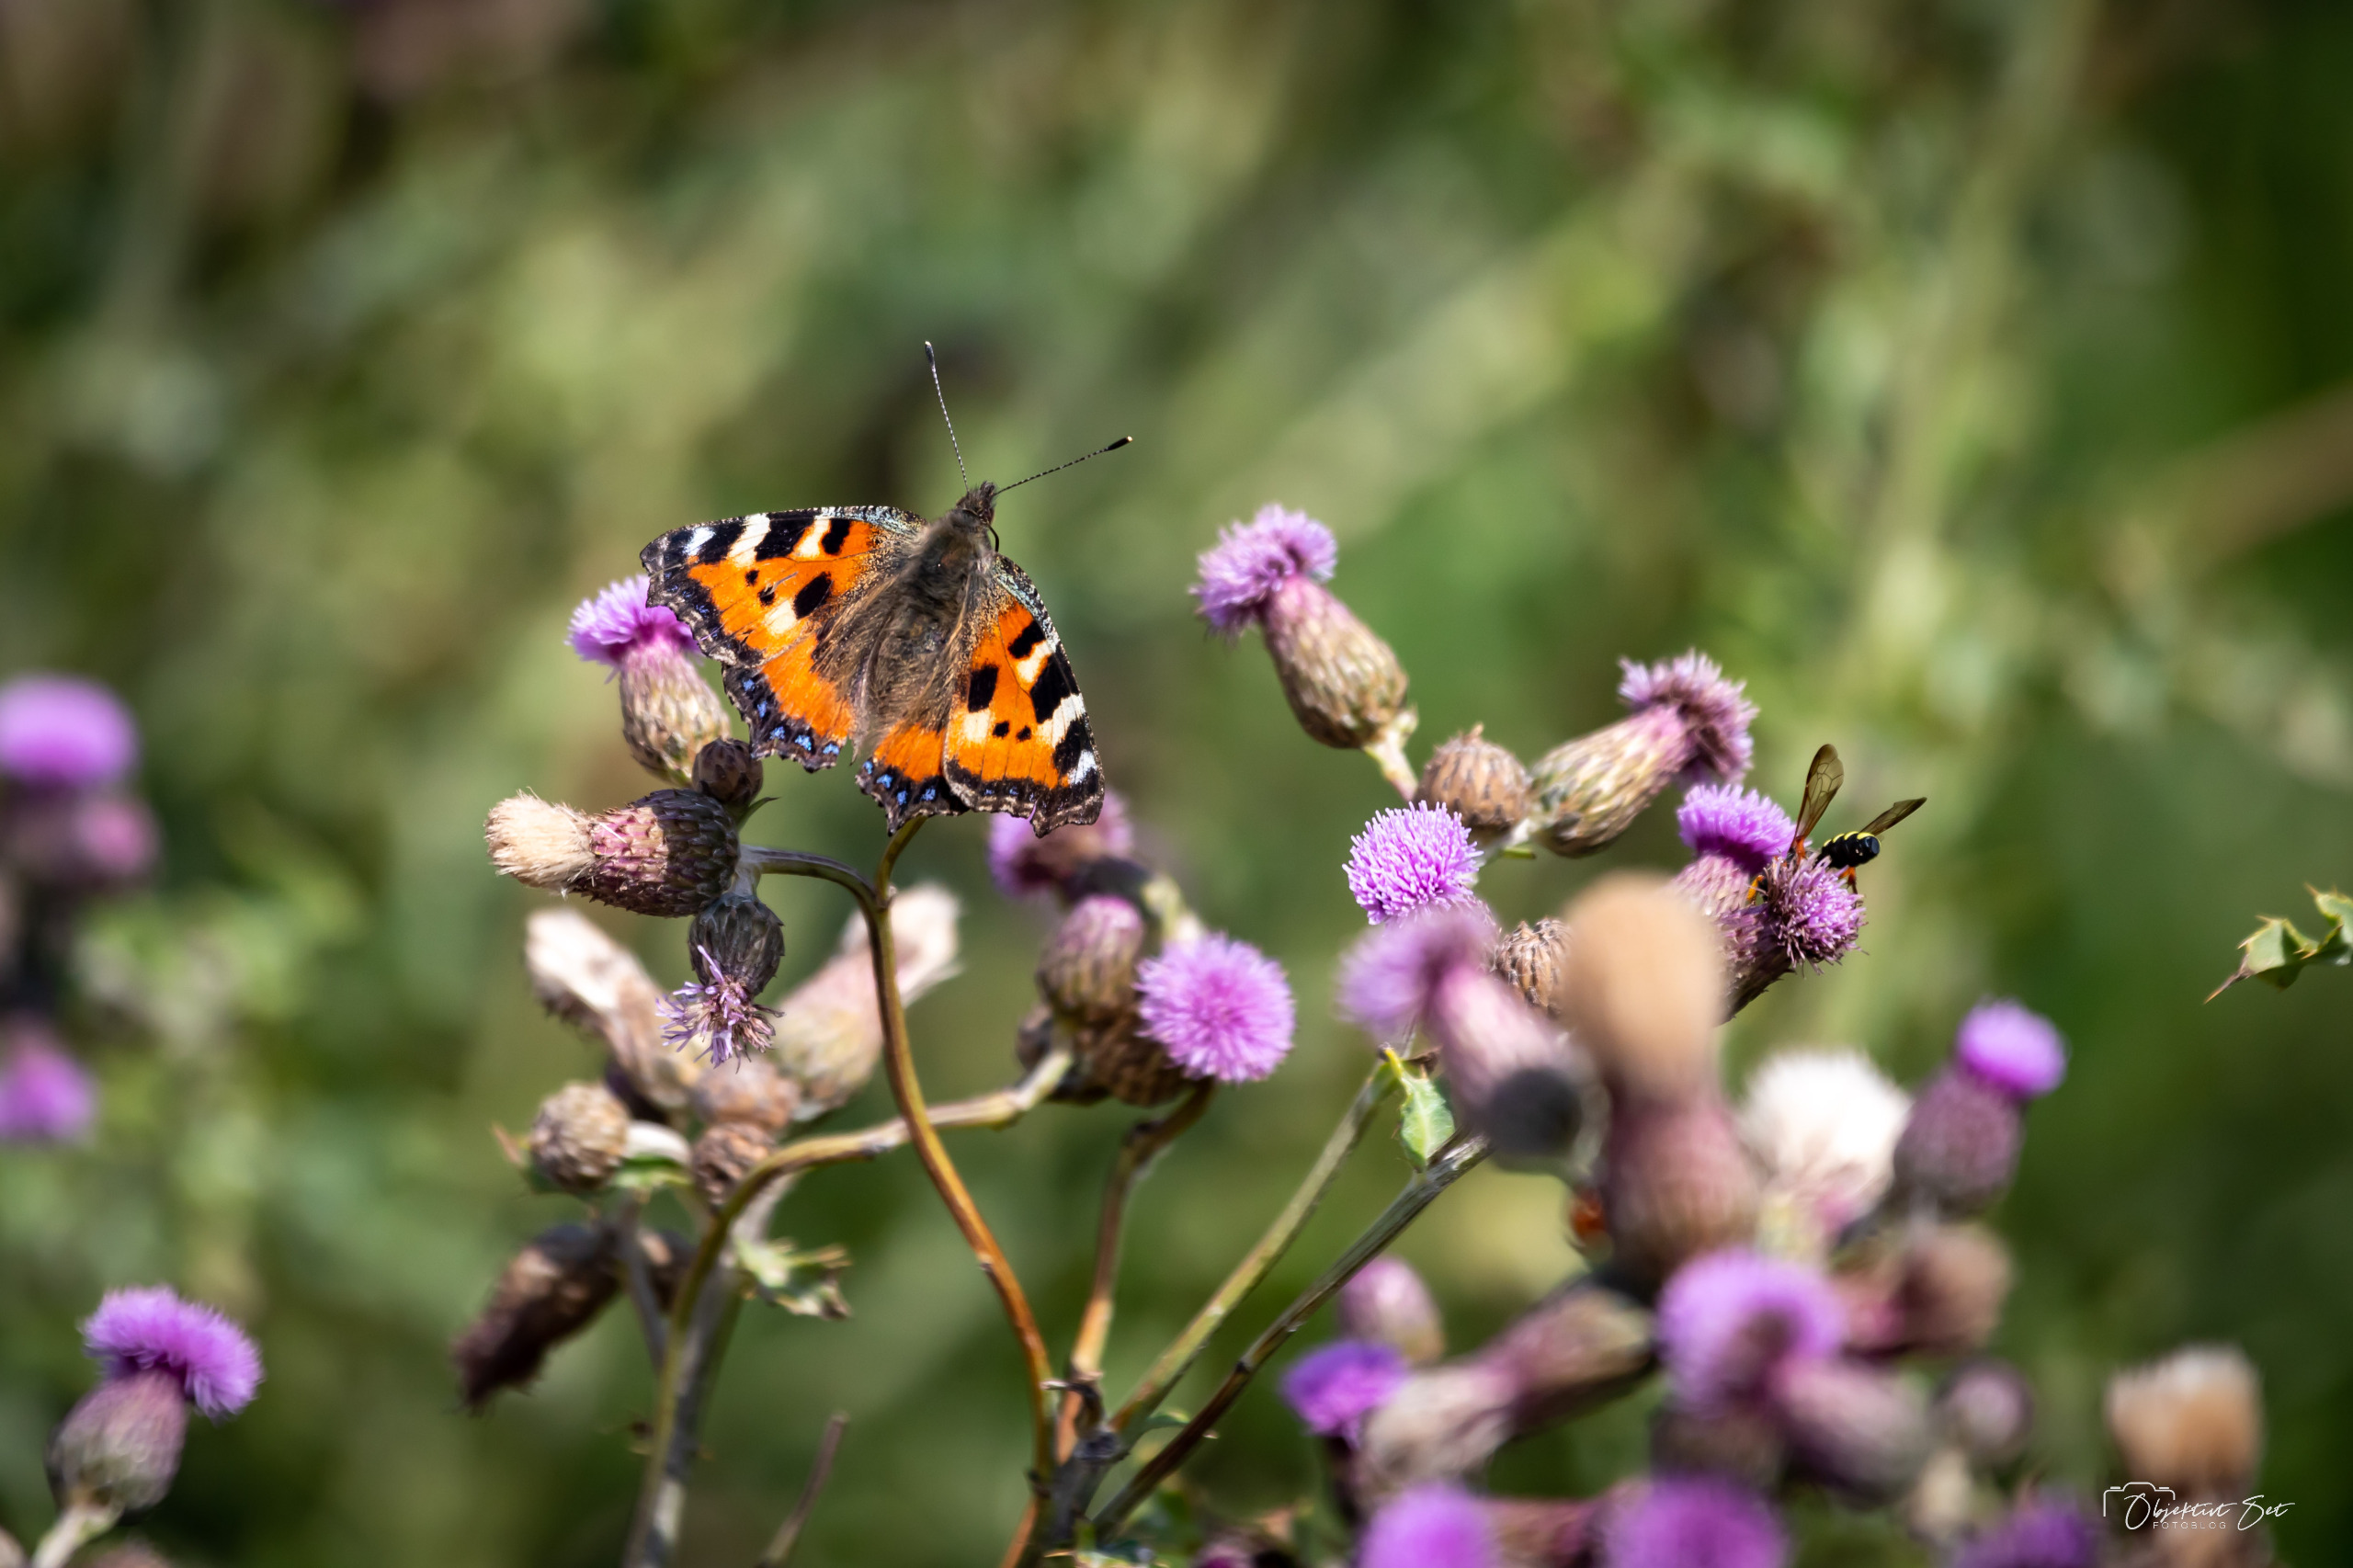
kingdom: Animalia
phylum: Arthropoda
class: Insecta
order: Lepidoptera
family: Nymphalidae
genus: Aglais
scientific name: Aglais urticae
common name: Nældens takvinge
